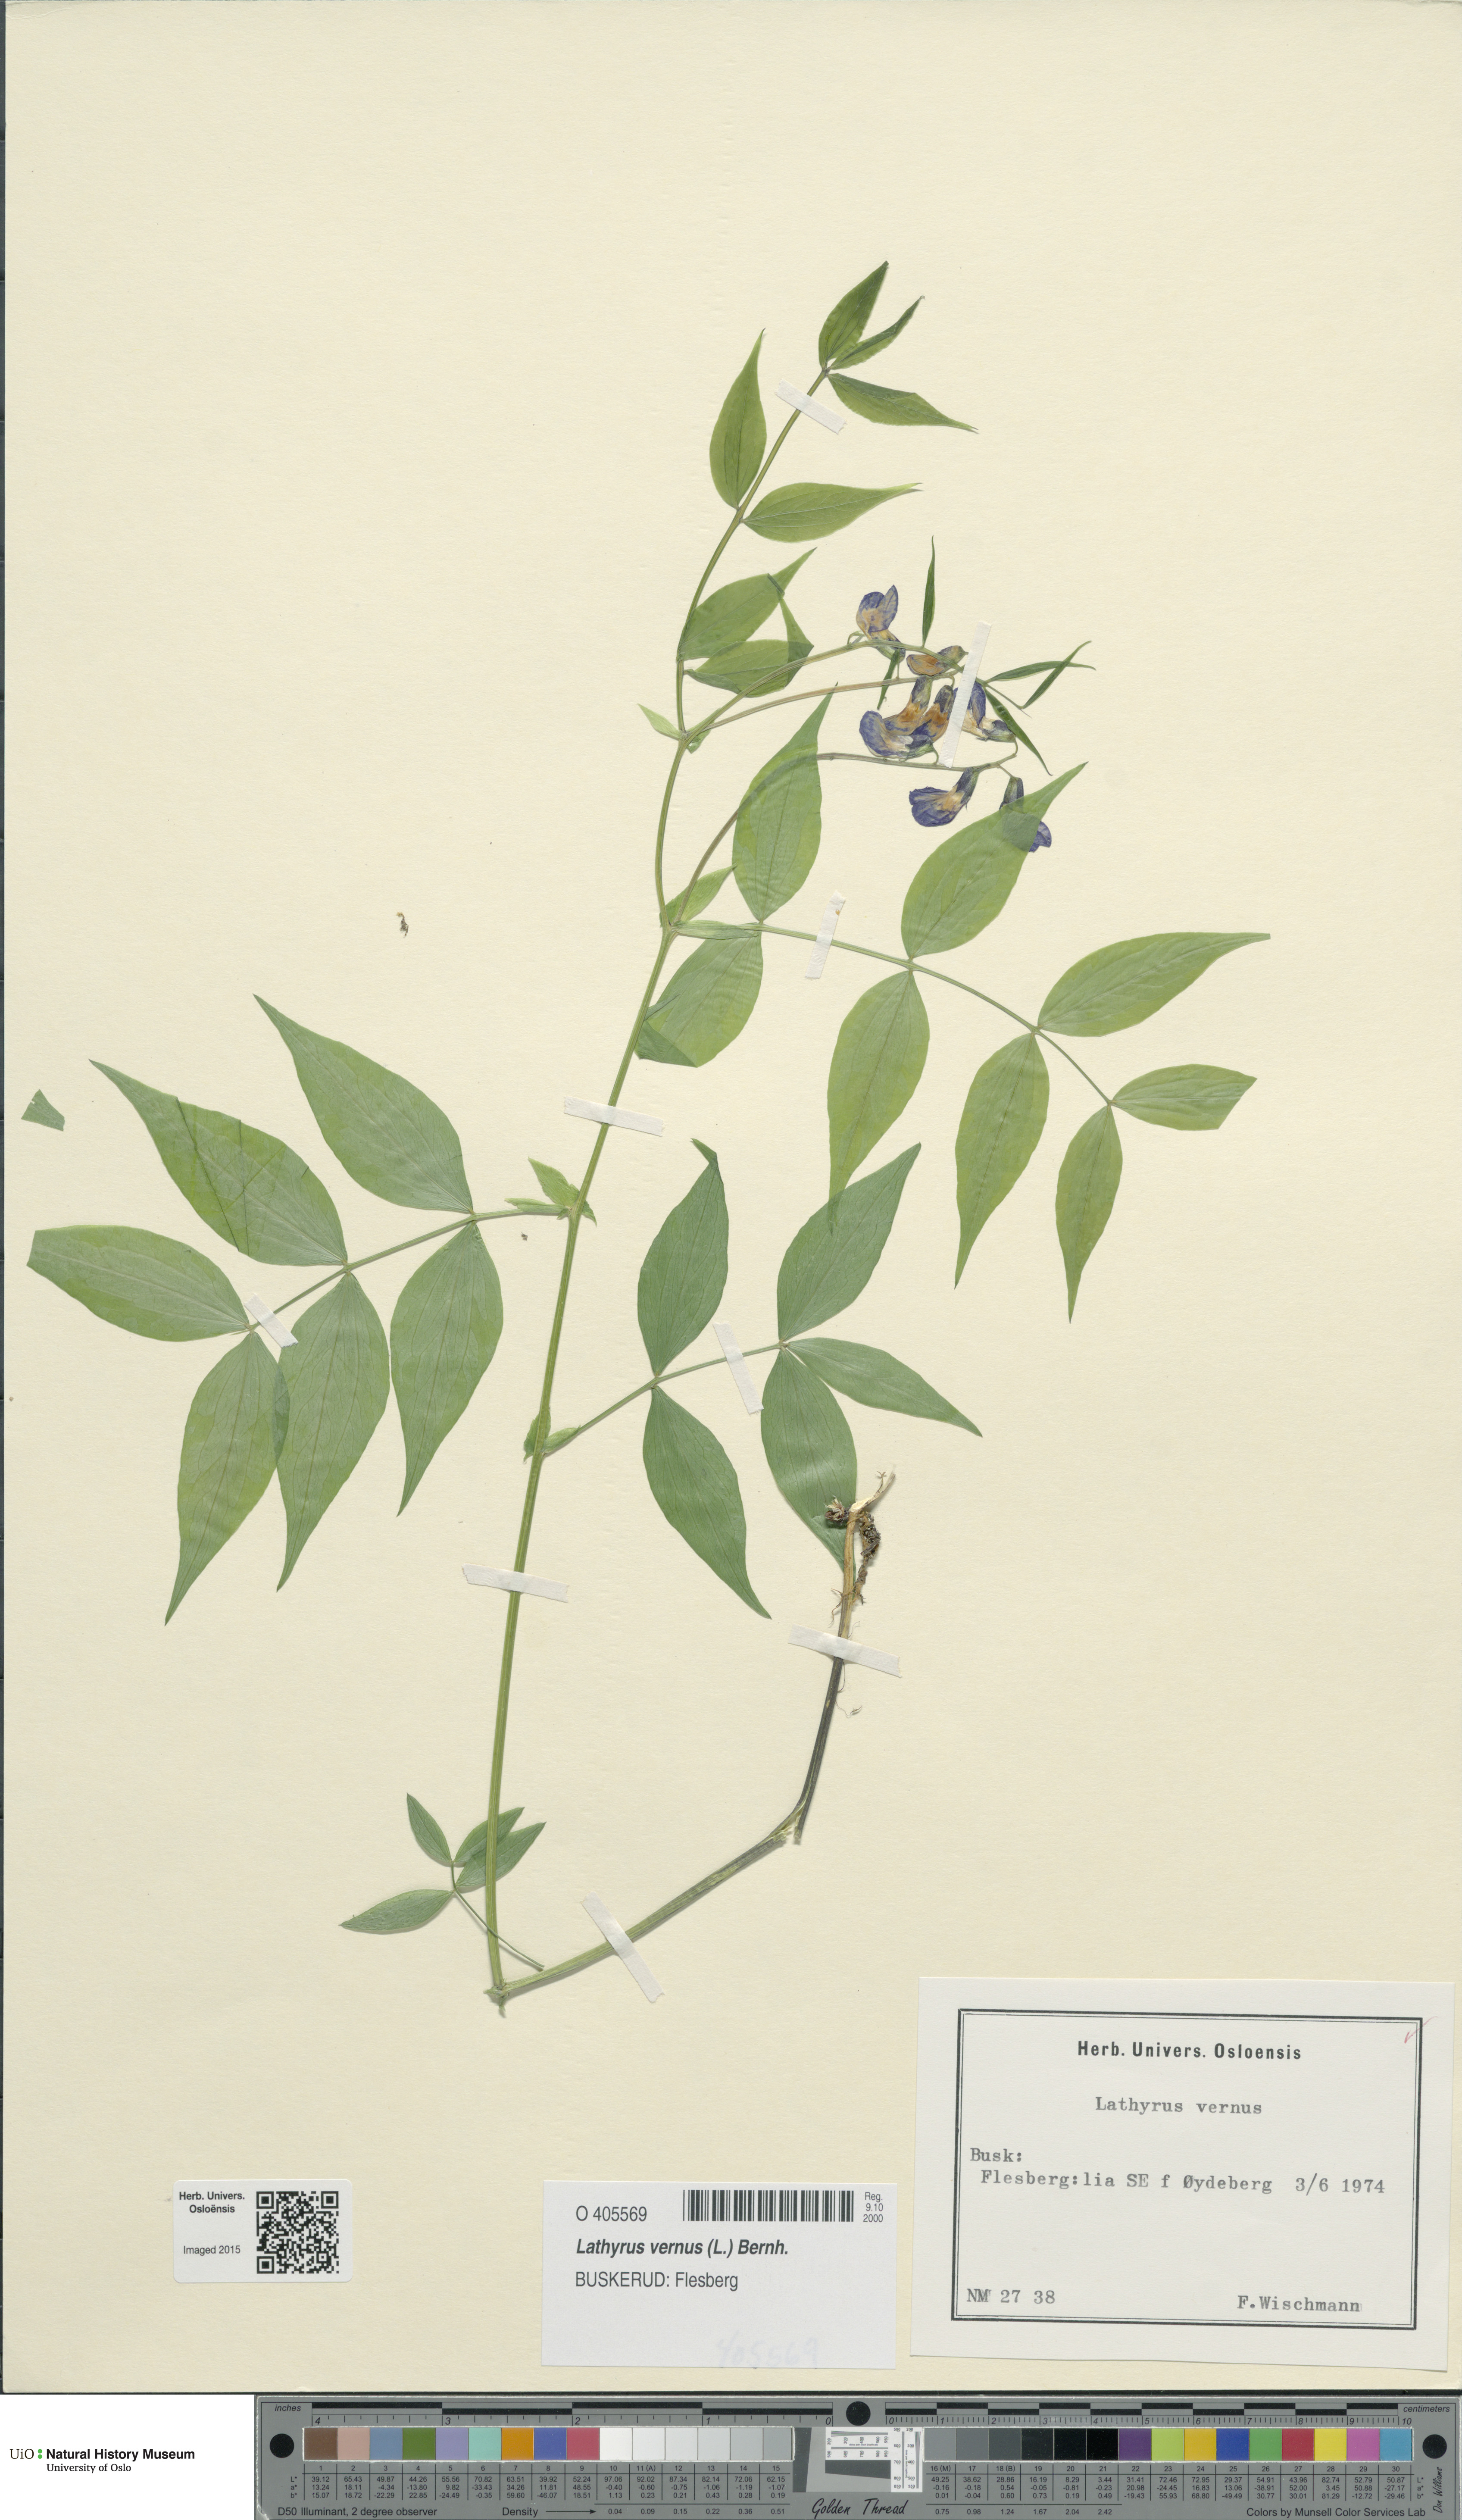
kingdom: Plantae
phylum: Tracheophyta
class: Magnoliopsida
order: Fabales
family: Fabaceae
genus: Lathyrus
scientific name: Lathyrus vernus
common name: Spring pea
